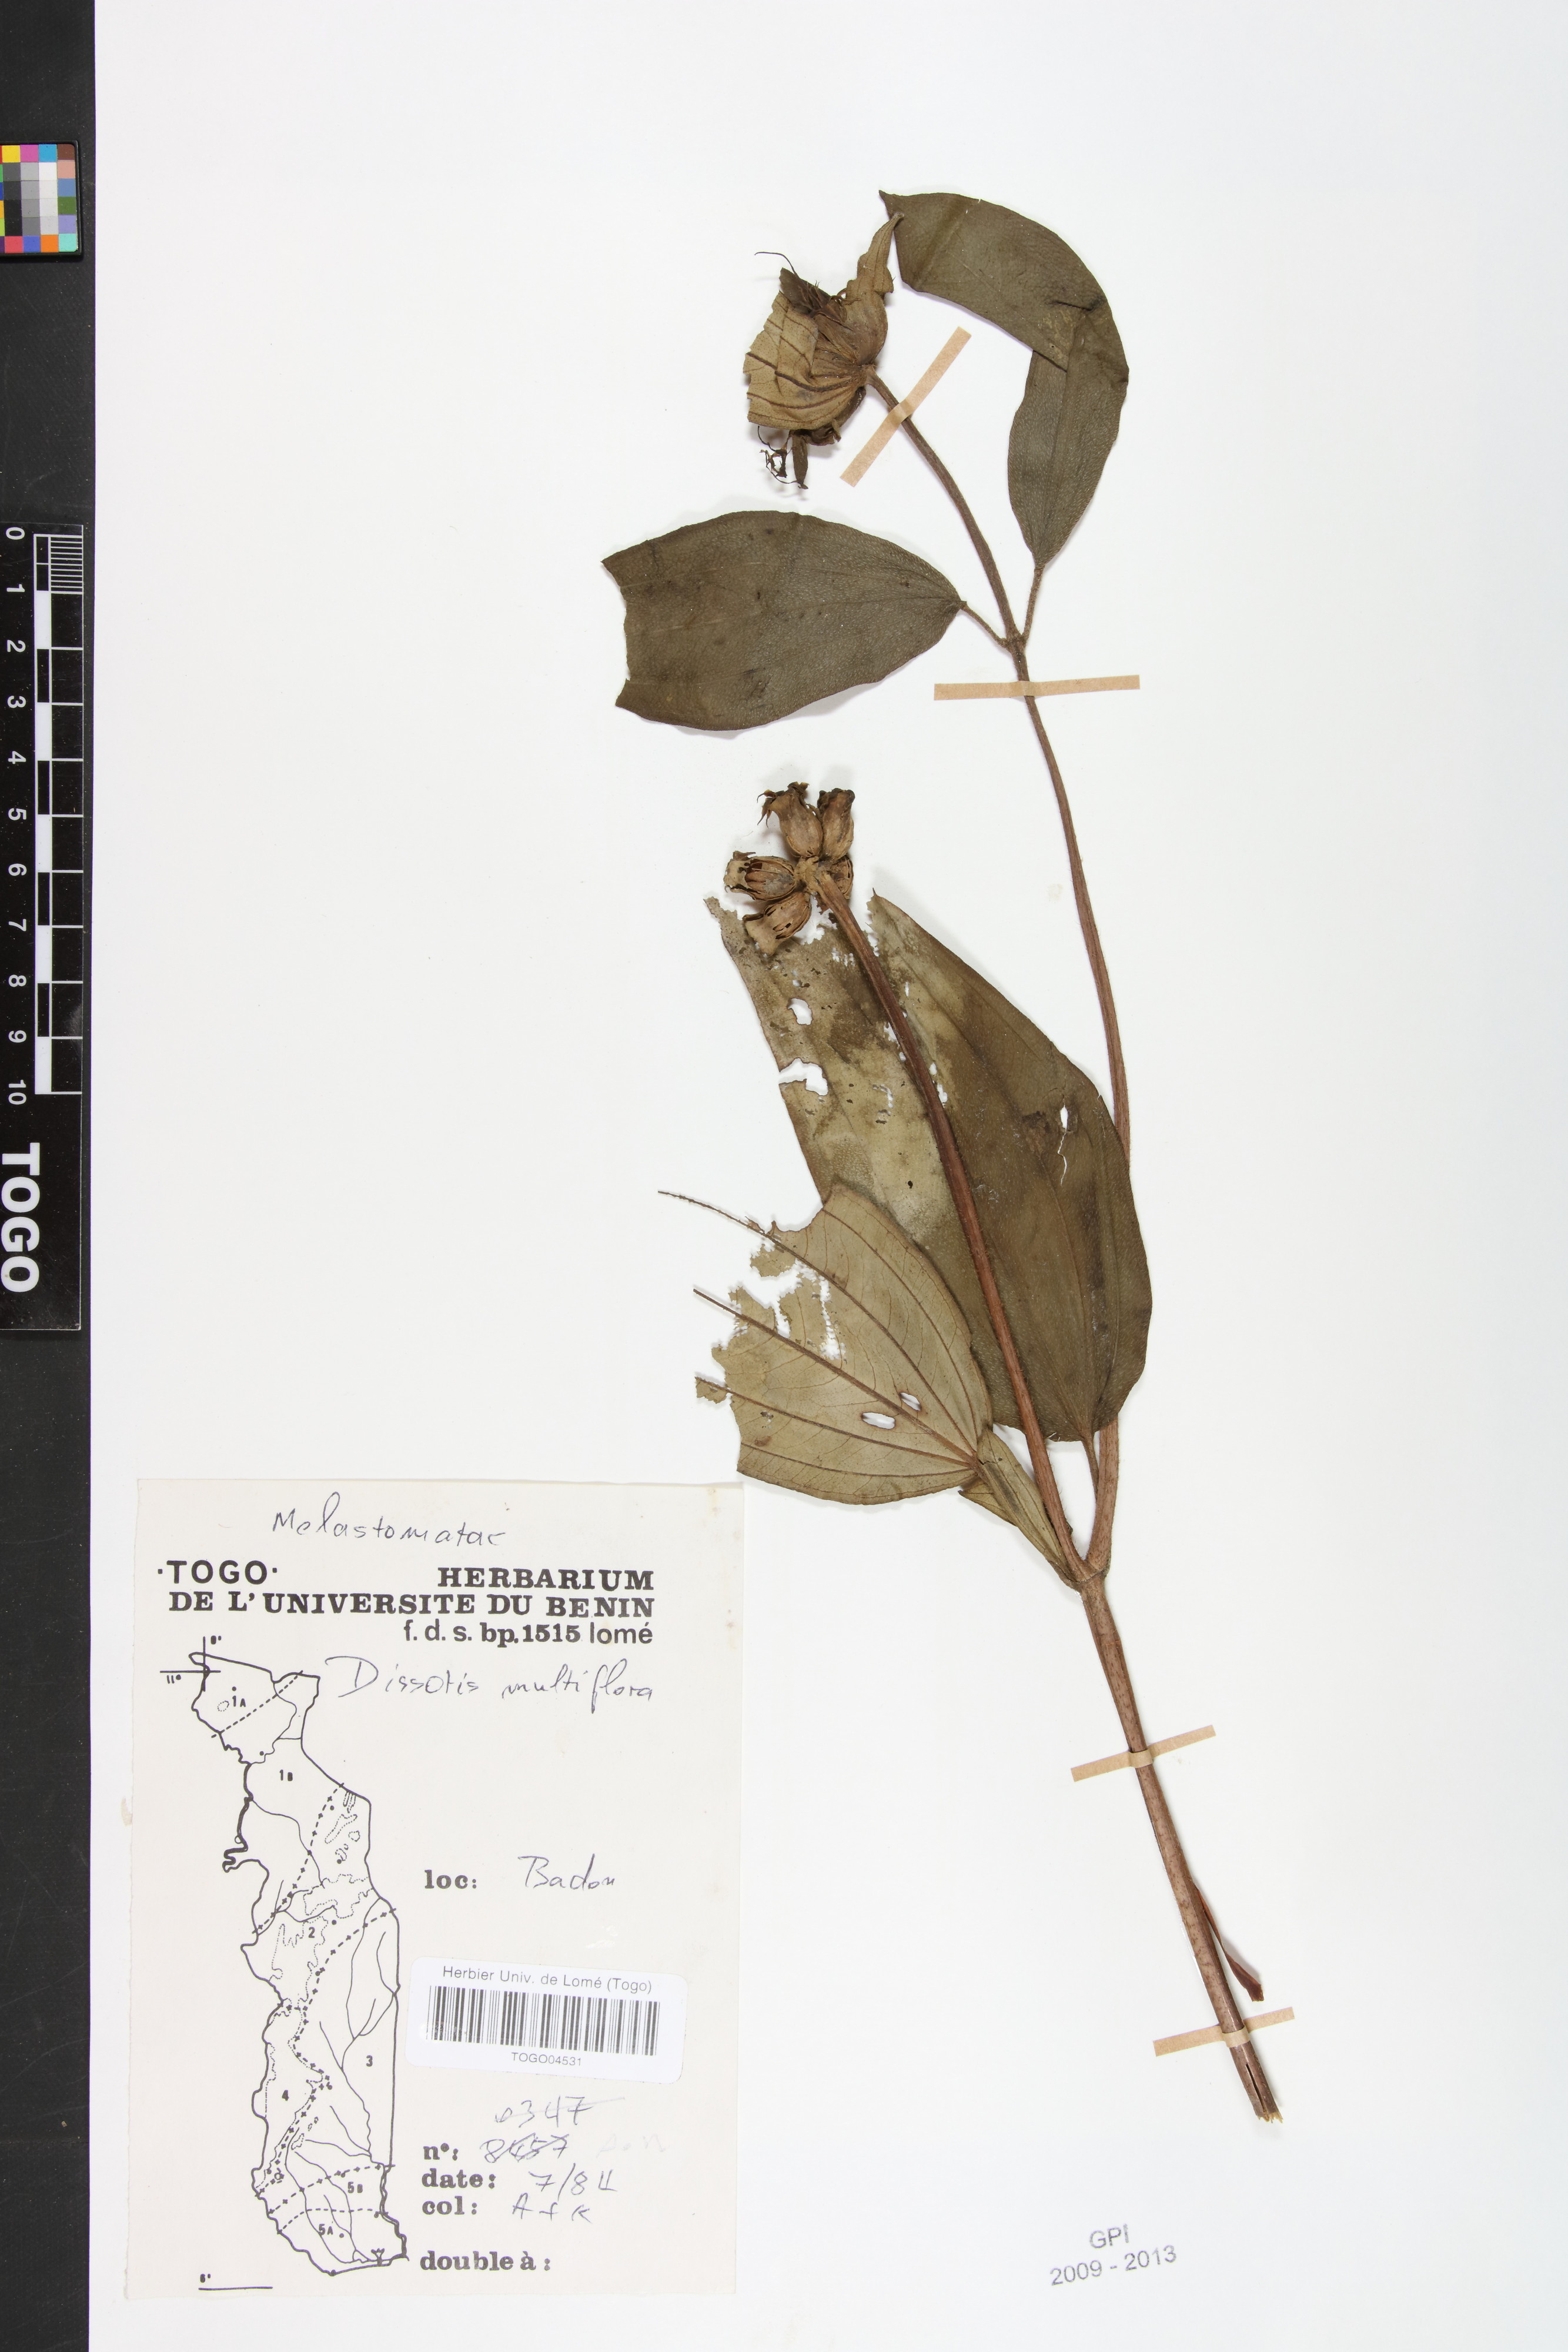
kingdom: Plantae
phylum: Tracheophyta
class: Magnoliopsida
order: Myrtales
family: Melastomataceae
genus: Dupineta
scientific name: Dupineta multiflora
